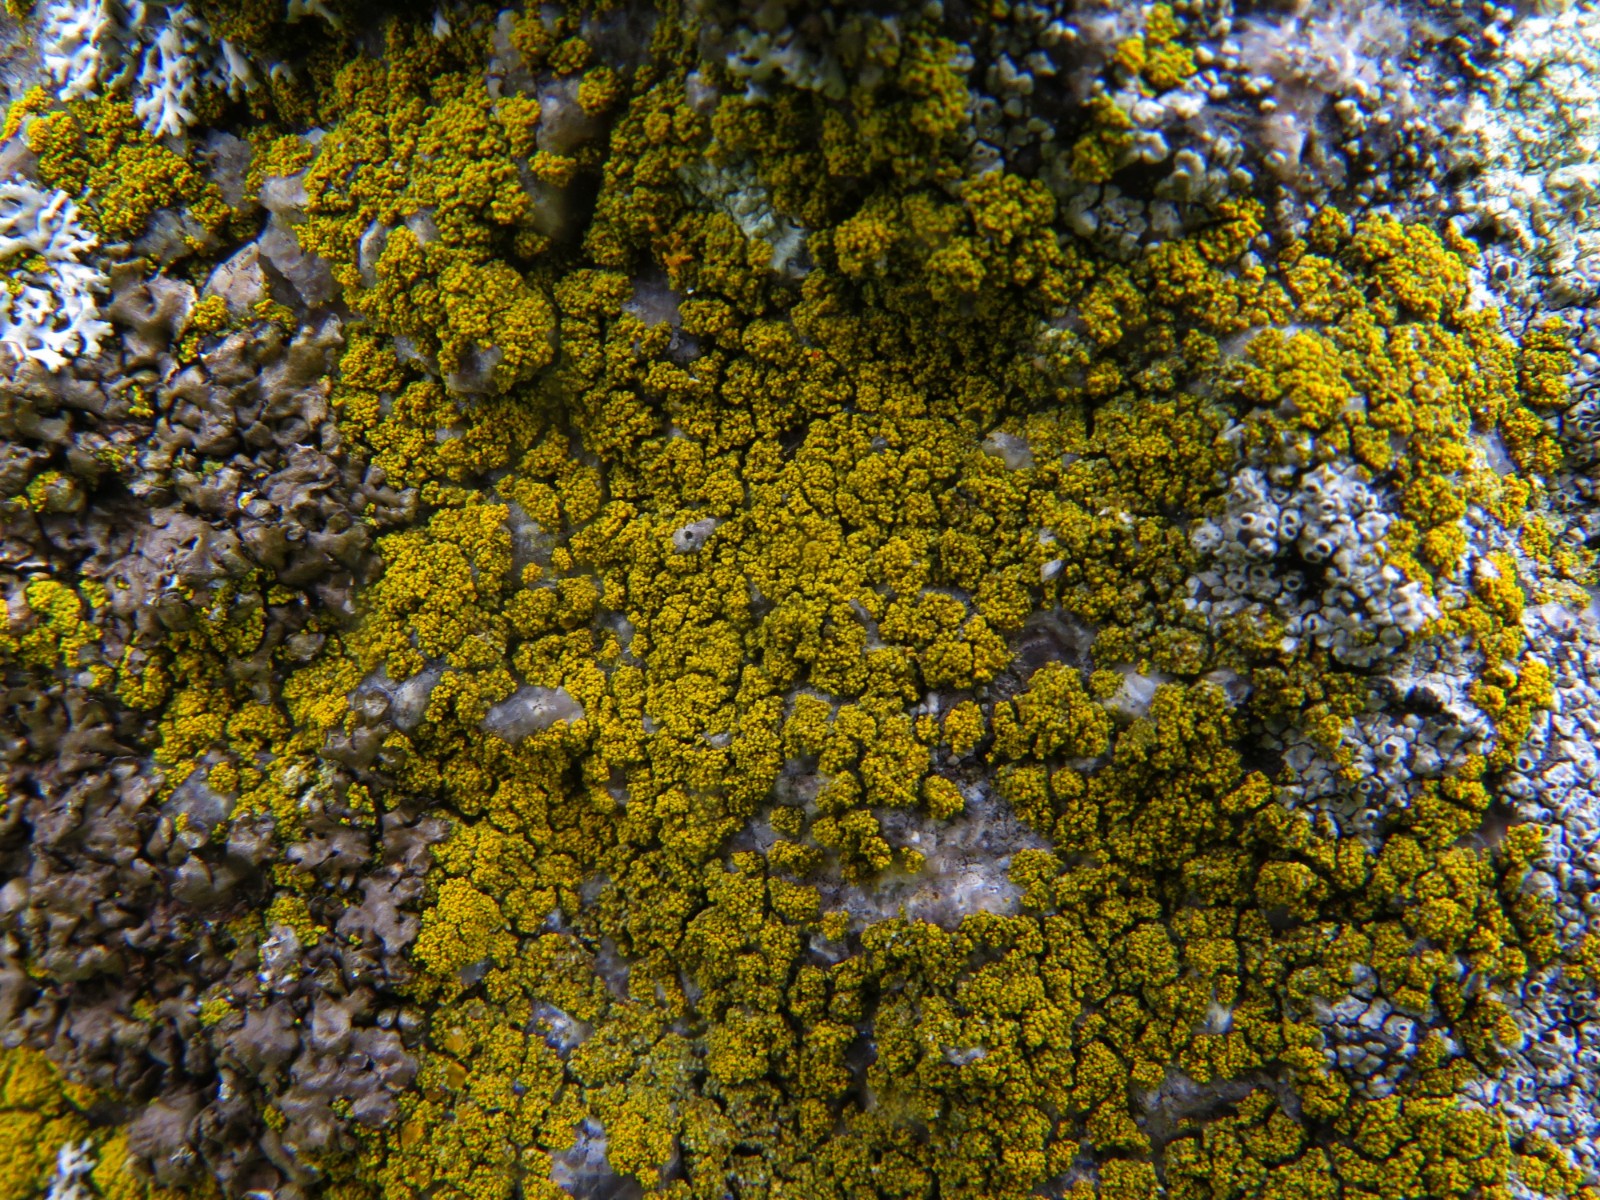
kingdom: Fungi
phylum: Ascomycota
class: Candelariomycetes
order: Candelariales
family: Candelariaceae
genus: Candelariella
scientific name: Candelariella vitellina
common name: almindelig æggeblommelav
